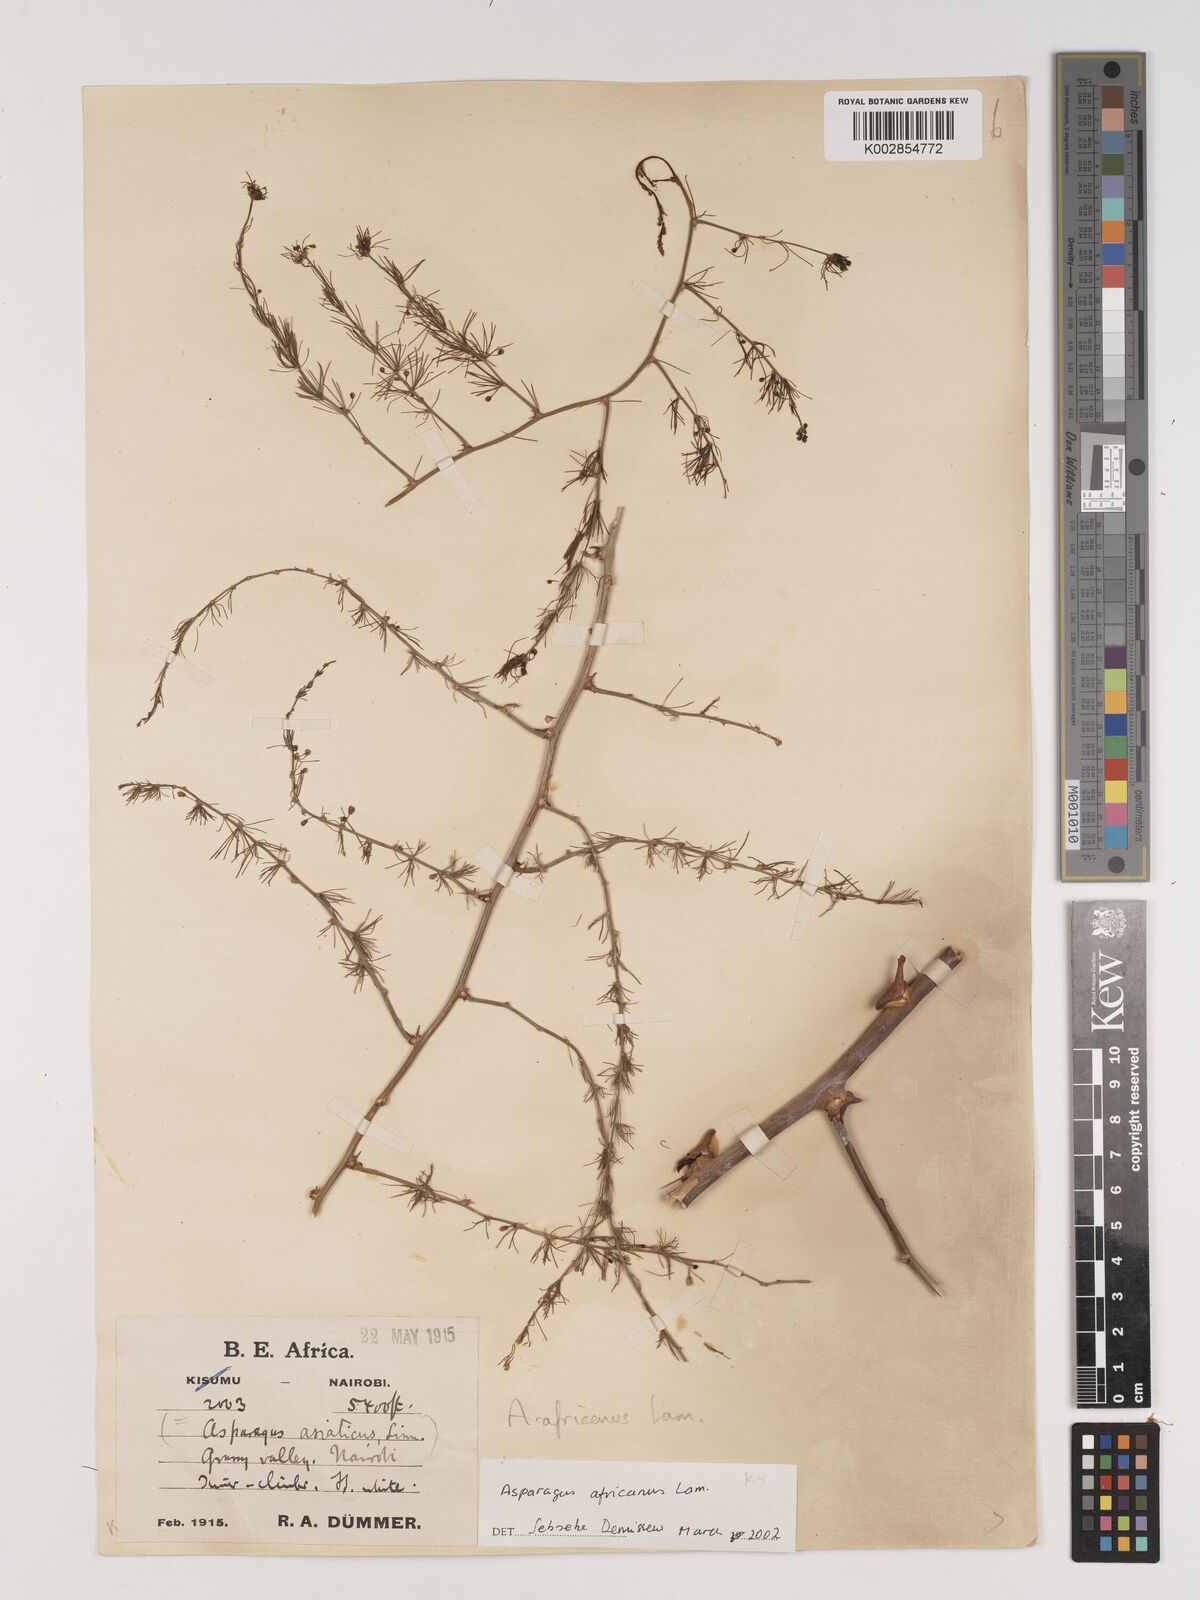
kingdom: Plantae
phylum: Tracheophyta
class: Liliopsida
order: Asparagales
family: Asparagaceae
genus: Asparagus
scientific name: Asparagus africanus
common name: Asparagus-fern
